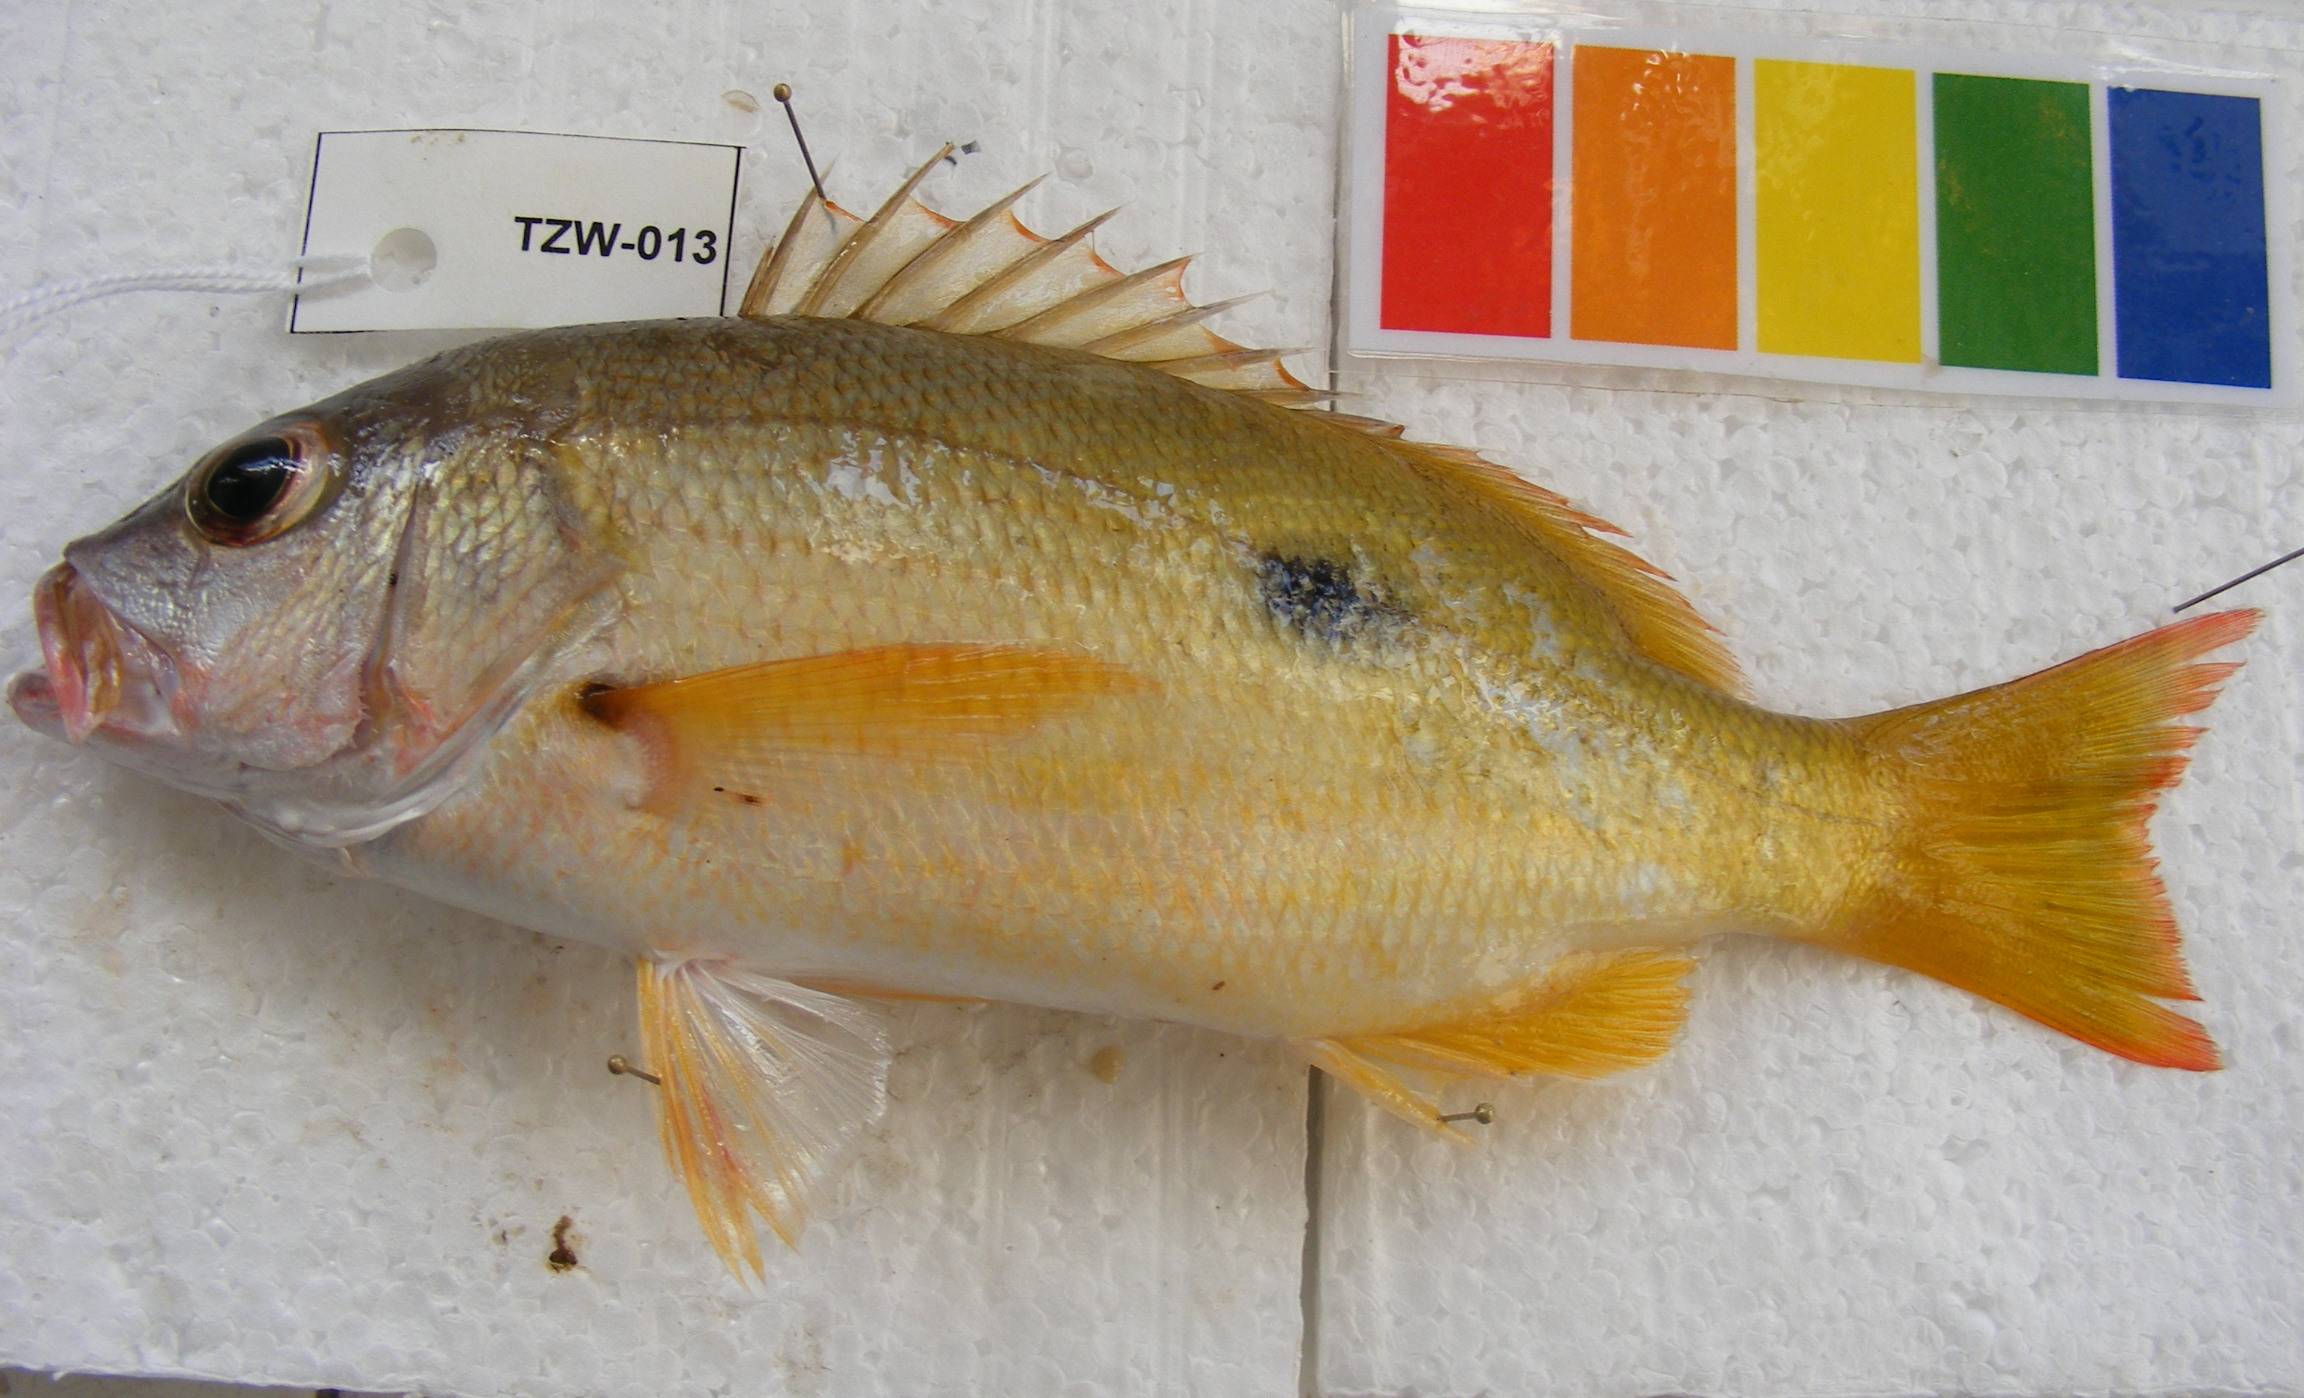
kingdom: Animalia
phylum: Chordata
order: Perciformes
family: Lutjanidae
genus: Lutjanus
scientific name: Lutjanus fulviflamma
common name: Blackspot snapper
